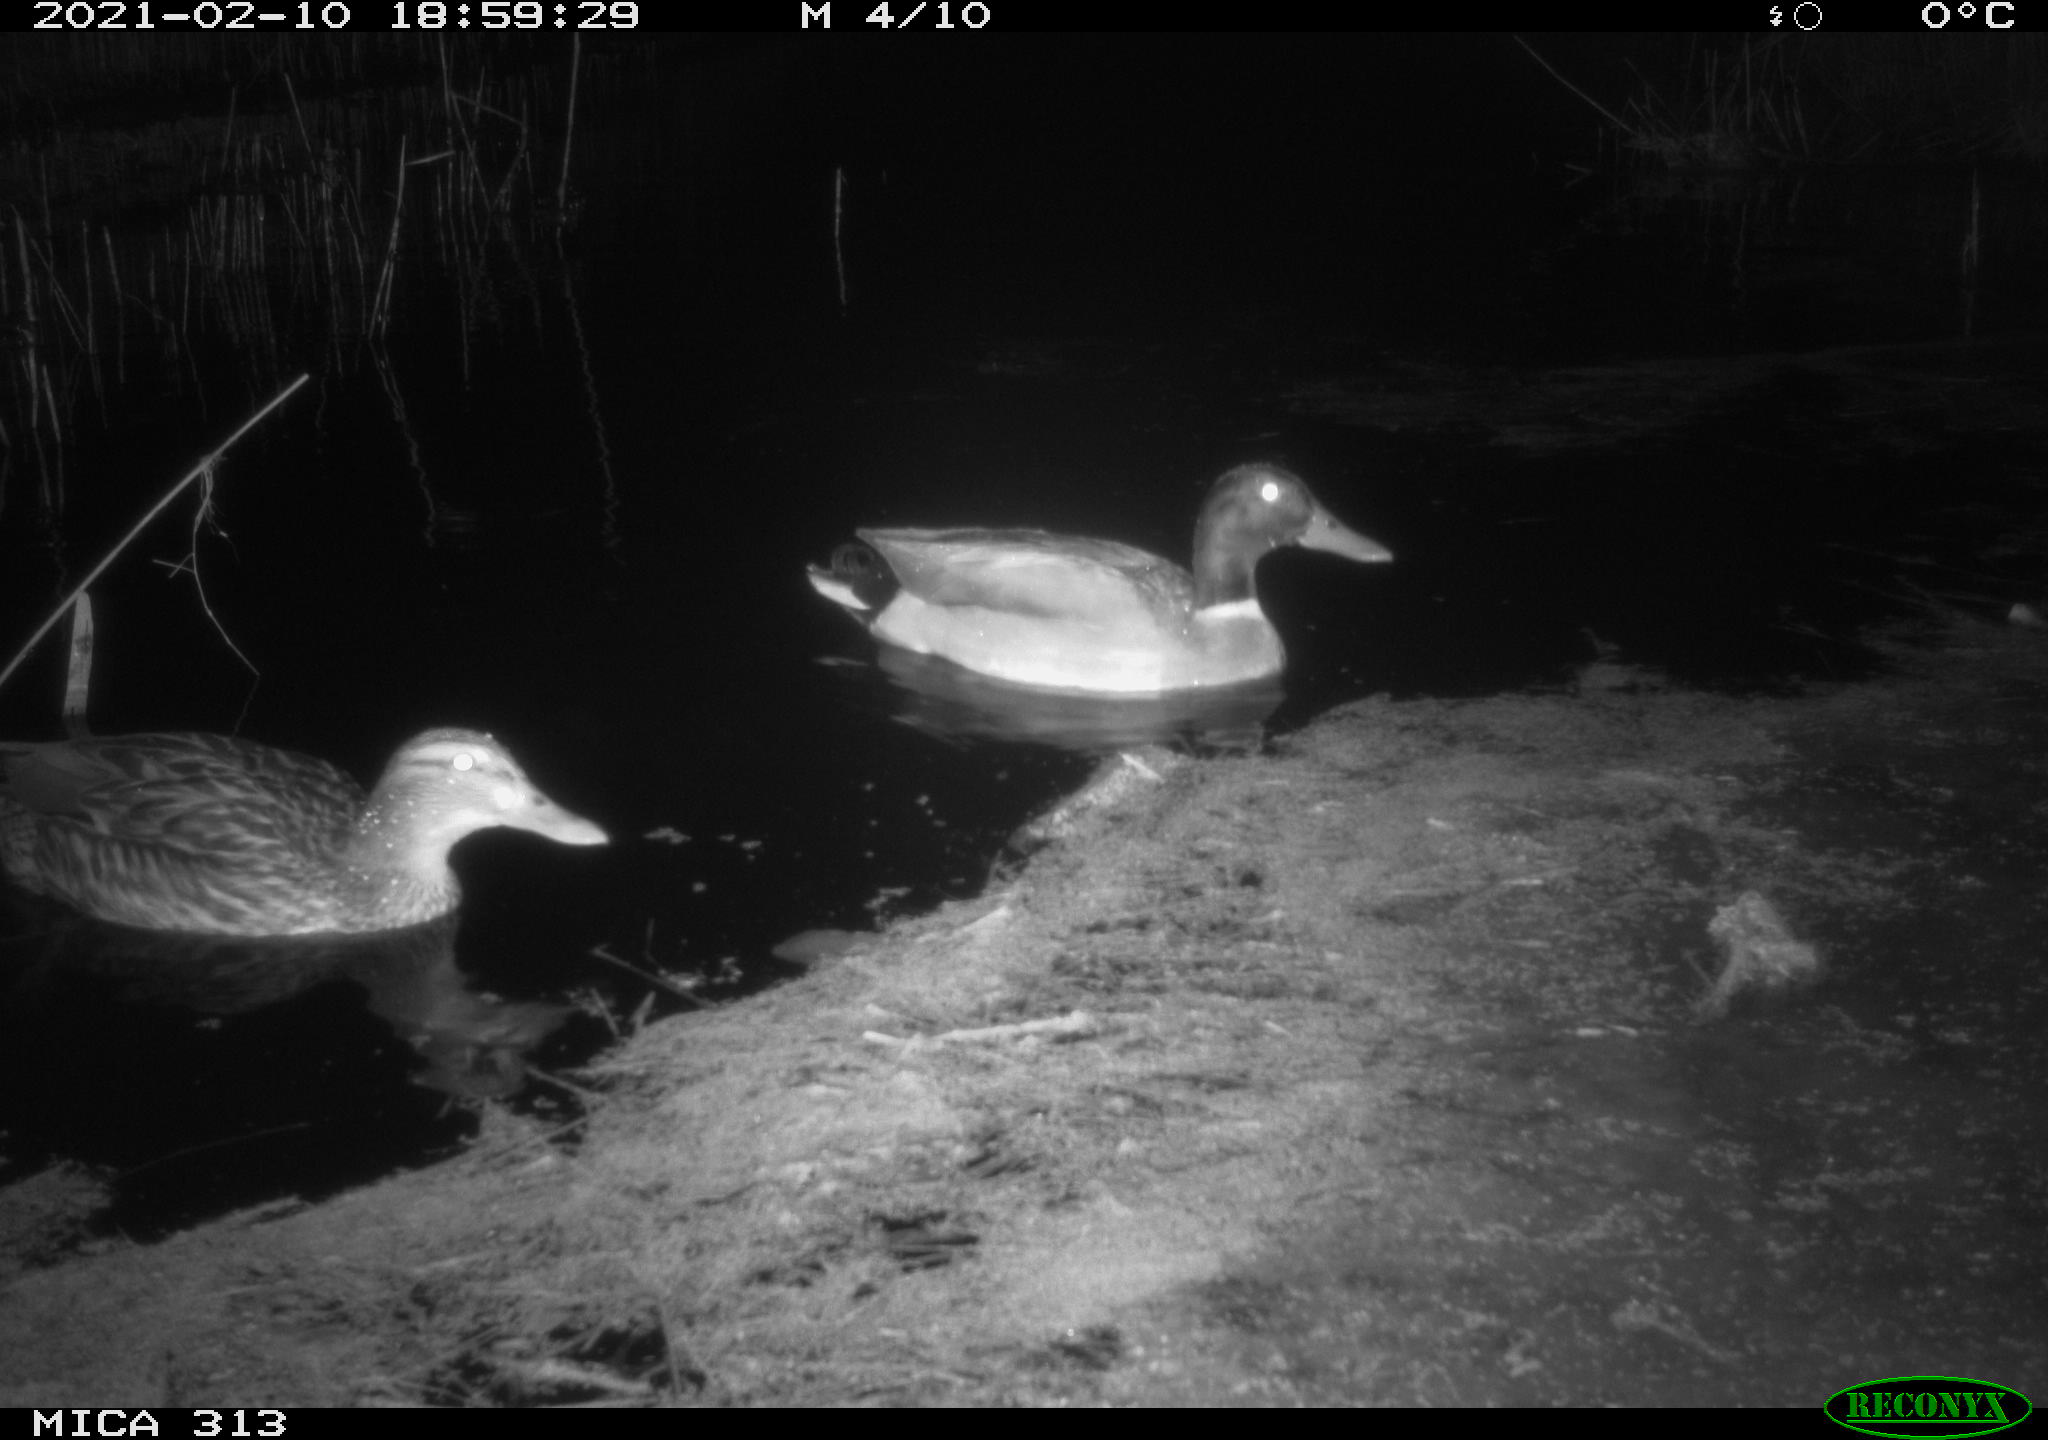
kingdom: Animalia
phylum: Chordata
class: Aves
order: Anseriformes
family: Anatidae
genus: Anas
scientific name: Anas
